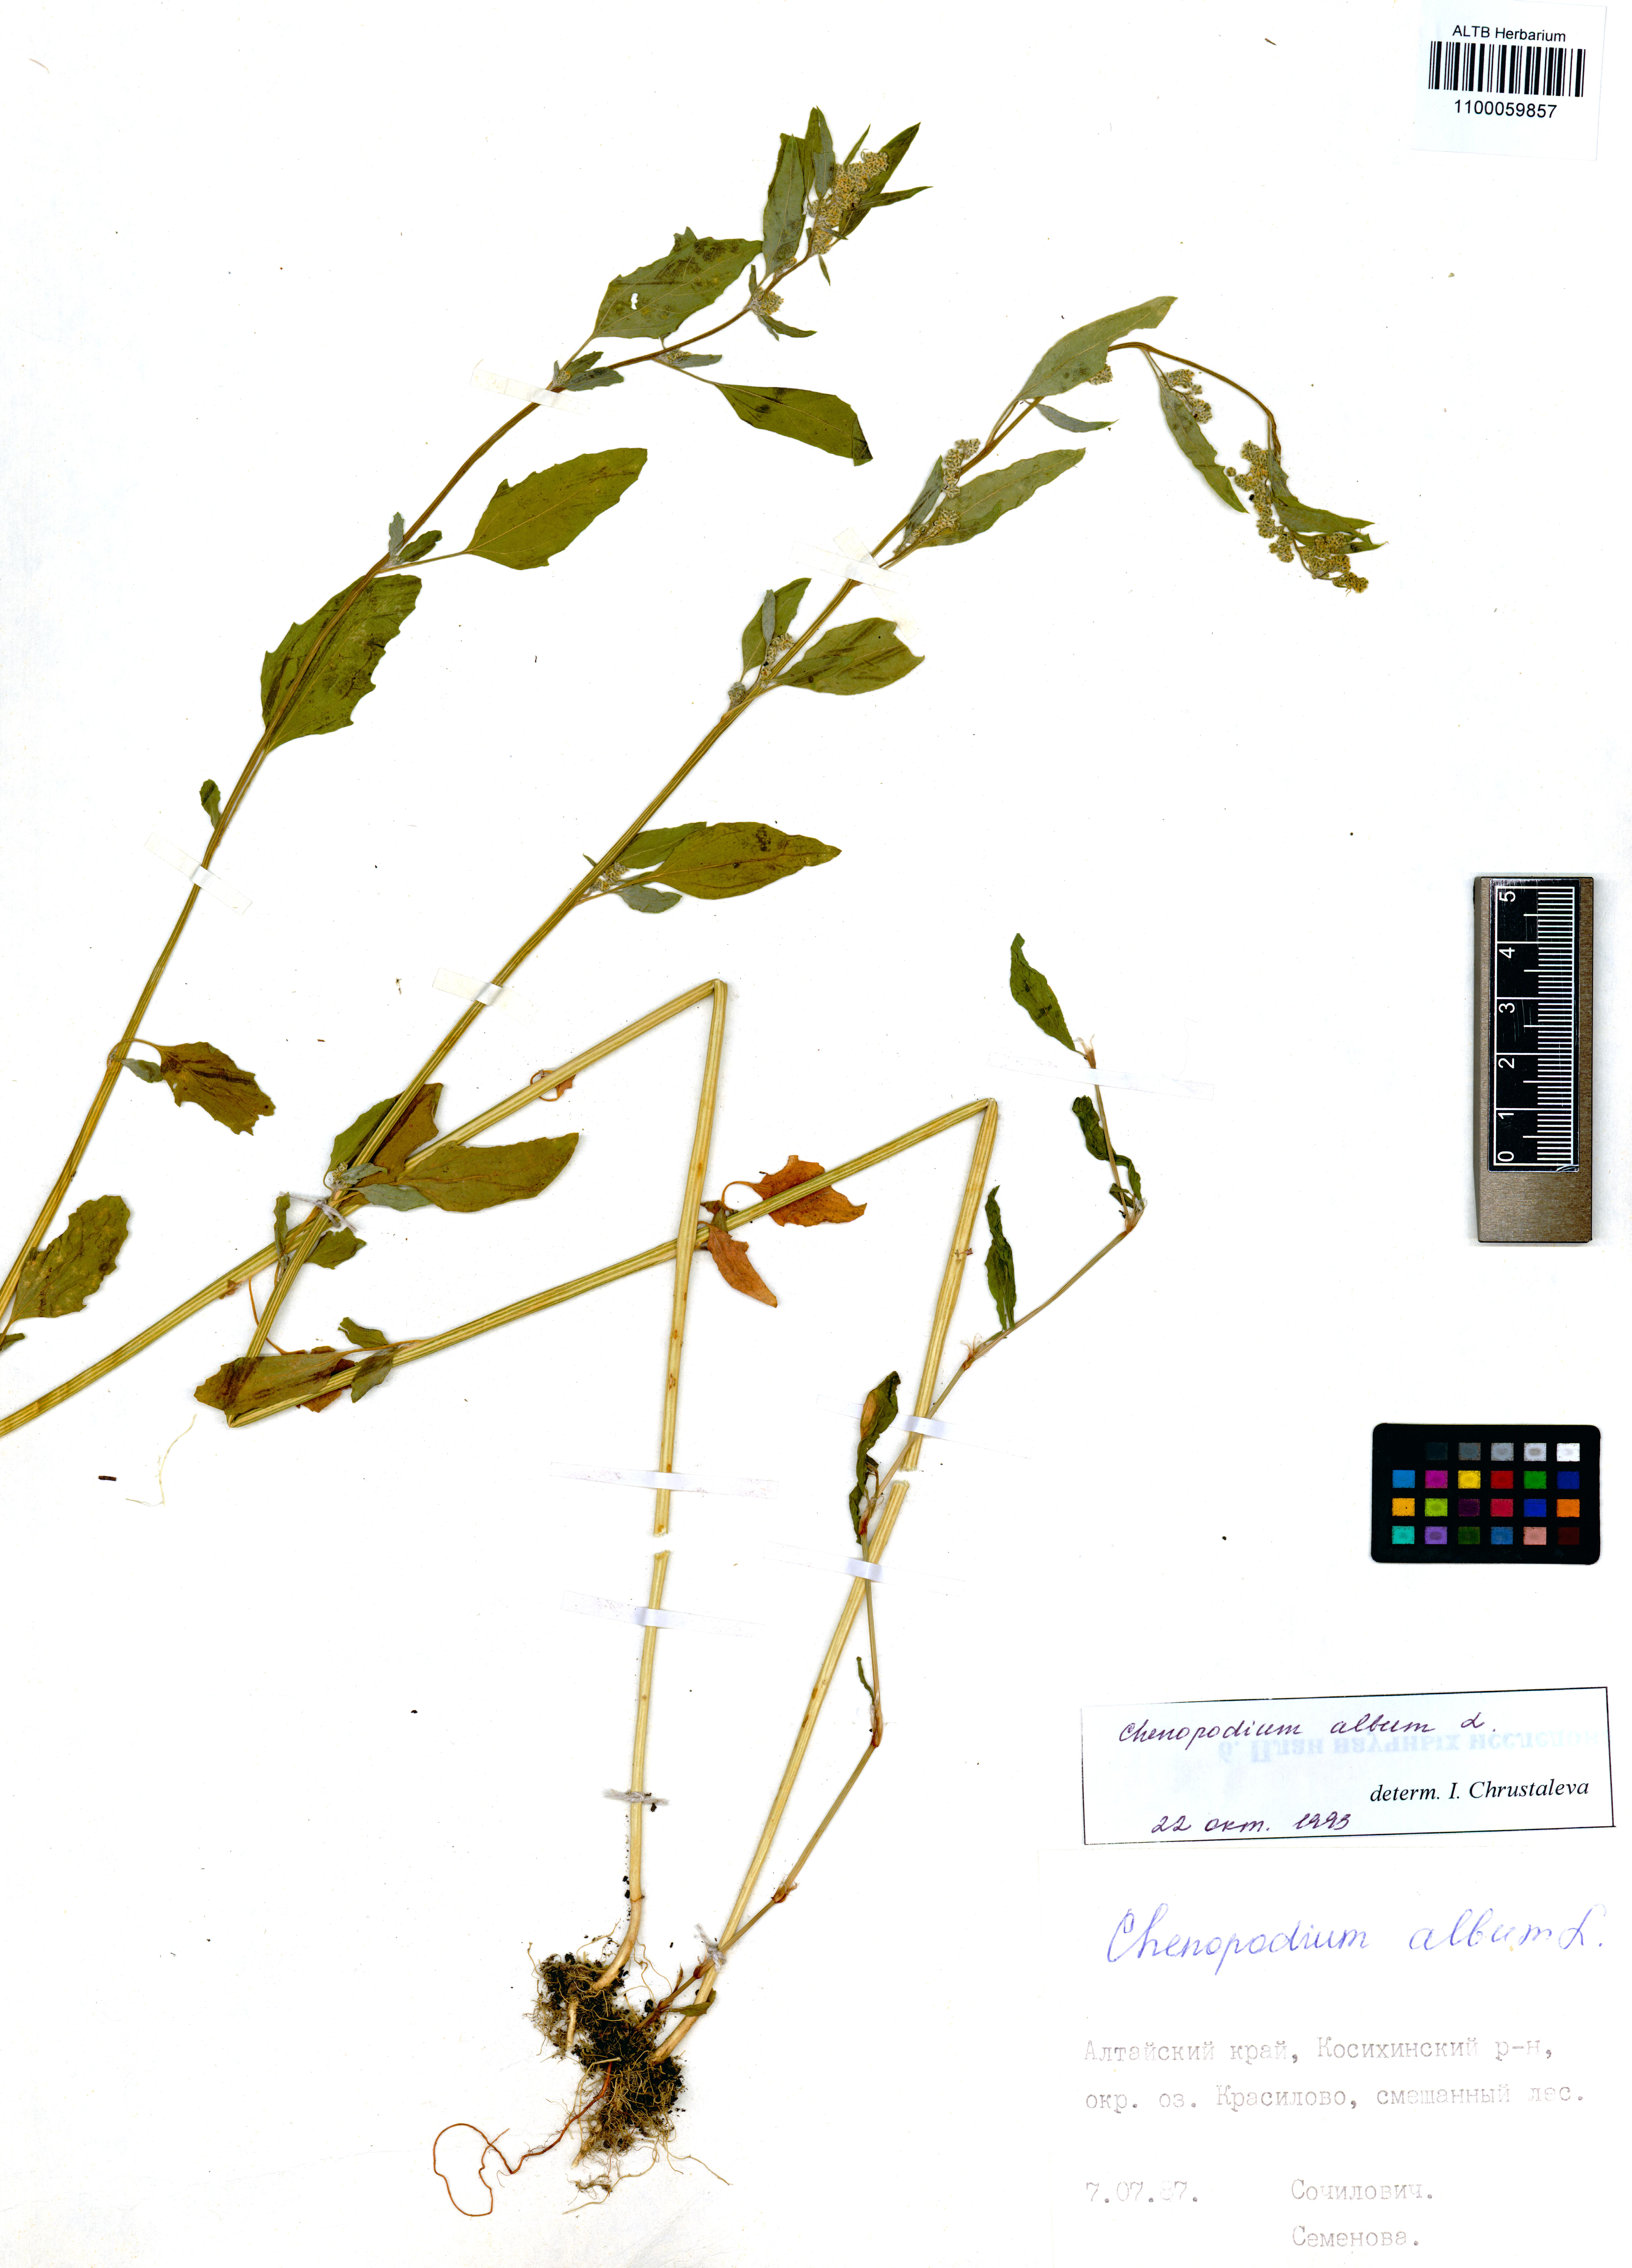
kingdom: Plantae
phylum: Tracheophyta
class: Magnoliopsida
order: Caryophyllales
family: Amaranthaceae
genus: Chenopodium
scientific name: Chenopodium album
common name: Fat-hen
